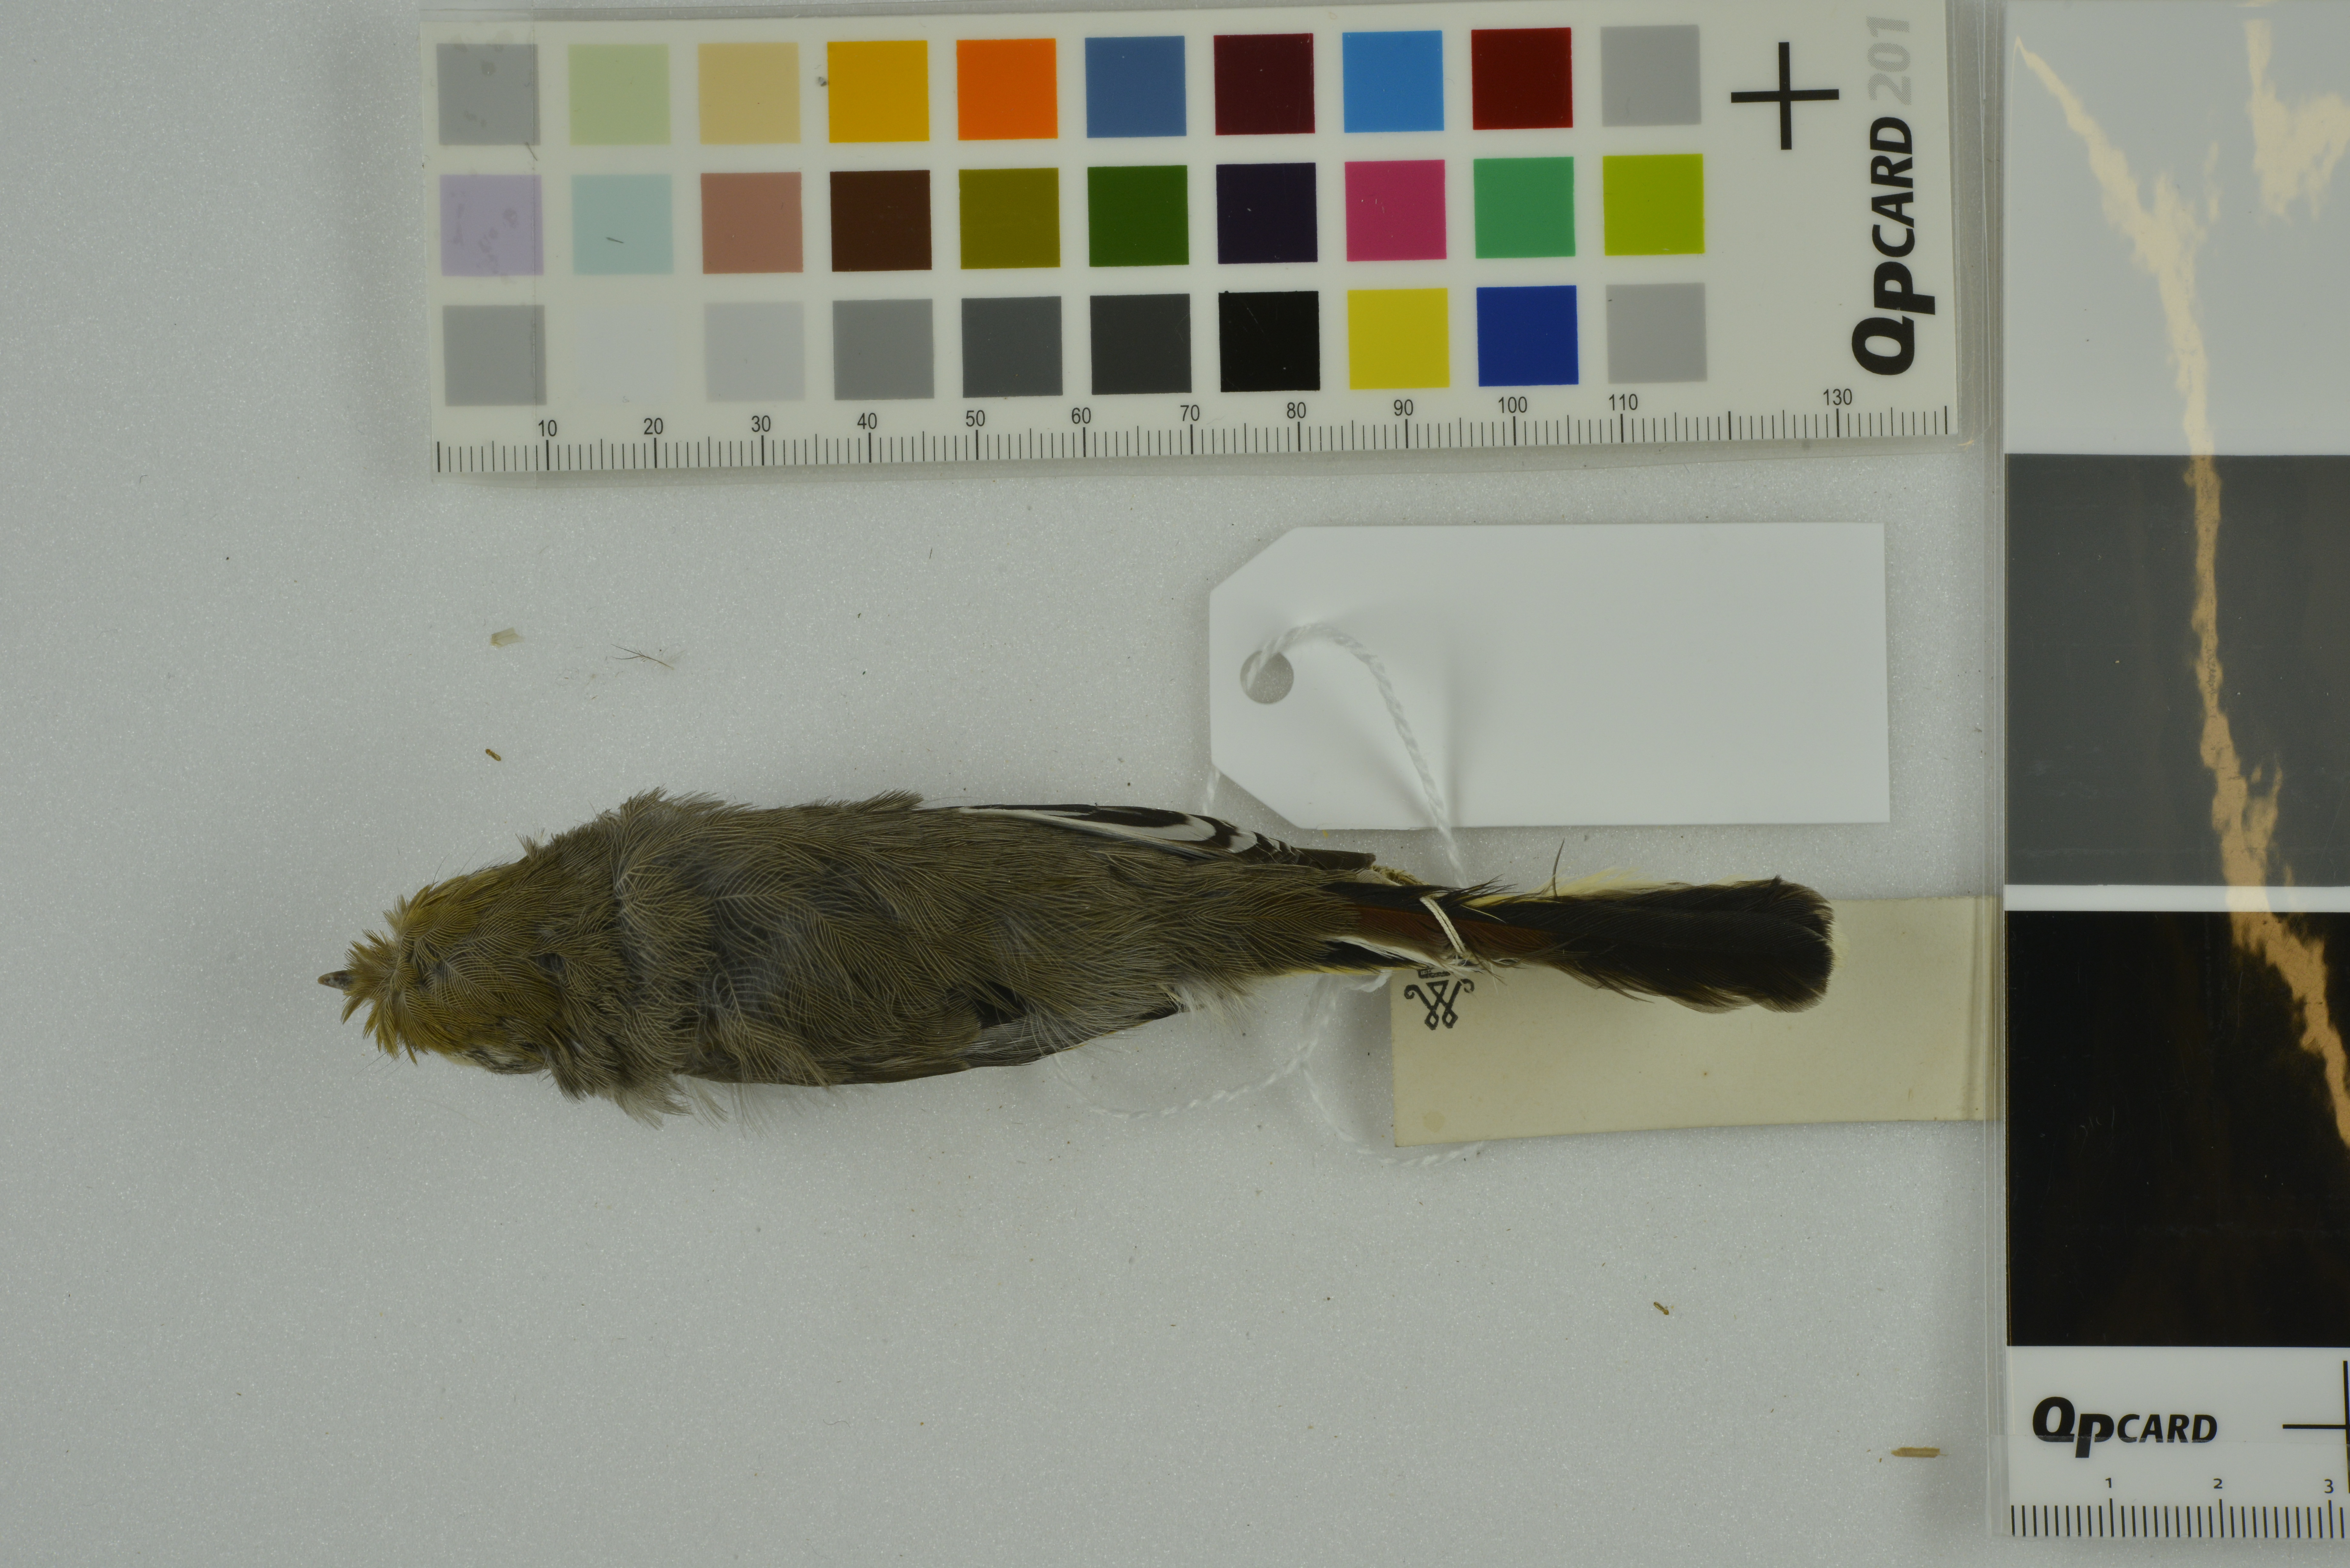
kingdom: Animalia
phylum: Chordata
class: Aves
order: Passeriformes
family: Leiothrichidae
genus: Minla
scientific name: Minla strigula
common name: Chestnut-tailed minla
